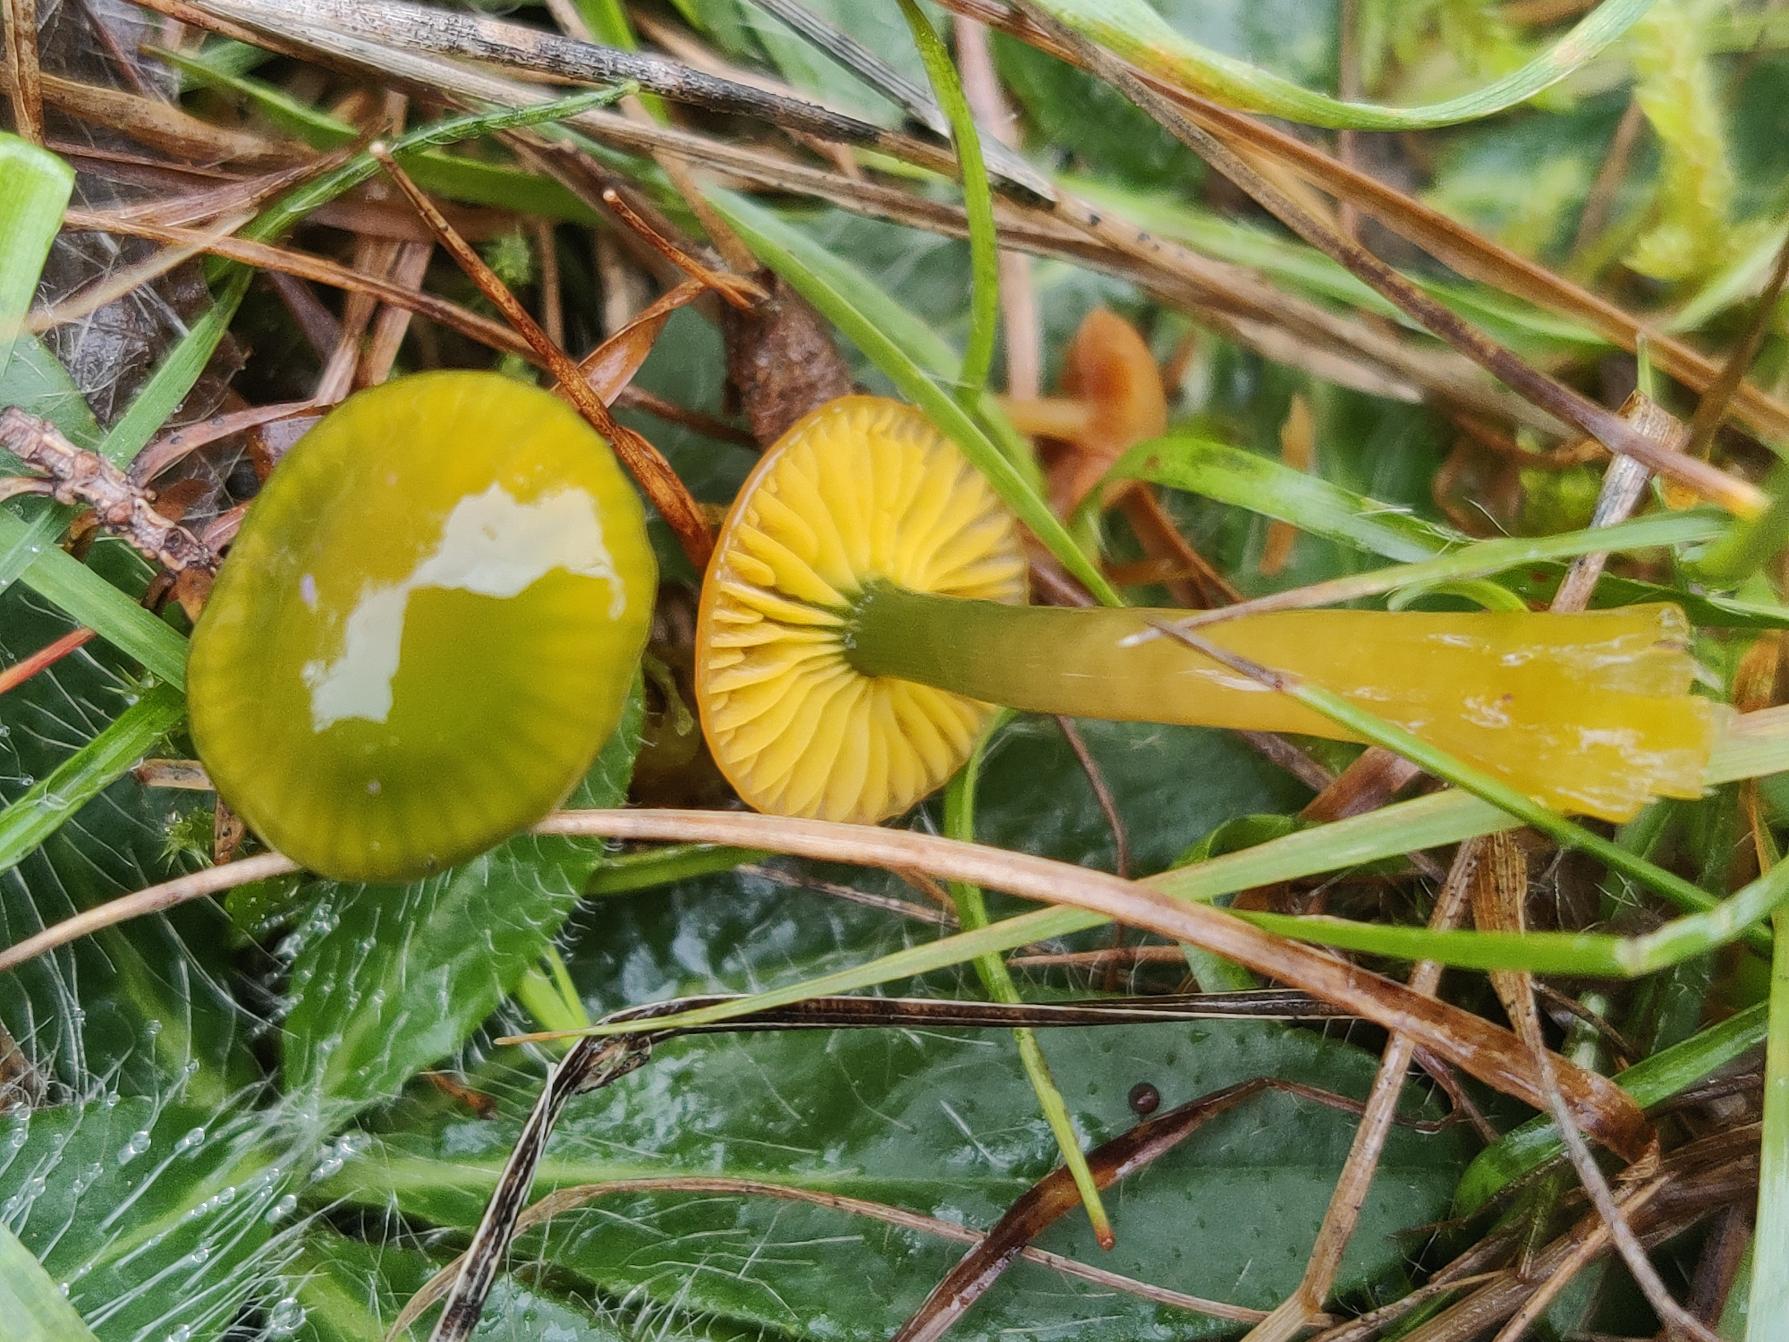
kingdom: Fungi
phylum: Basidiomycota
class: Agaricomycetes
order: Agaricales
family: Hygrophoraceae
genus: Gliophorus
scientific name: Gliophorus psittacinus
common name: Papegøje-vokshat
